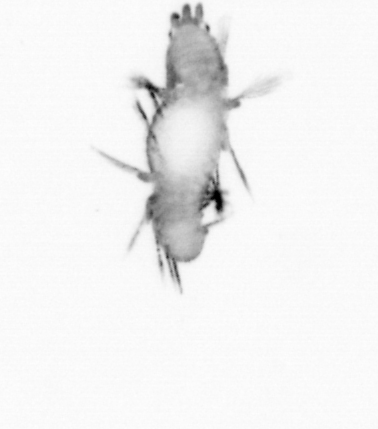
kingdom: Animalia
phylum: Annelida
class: Polychaeta
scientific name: Polychaeta
